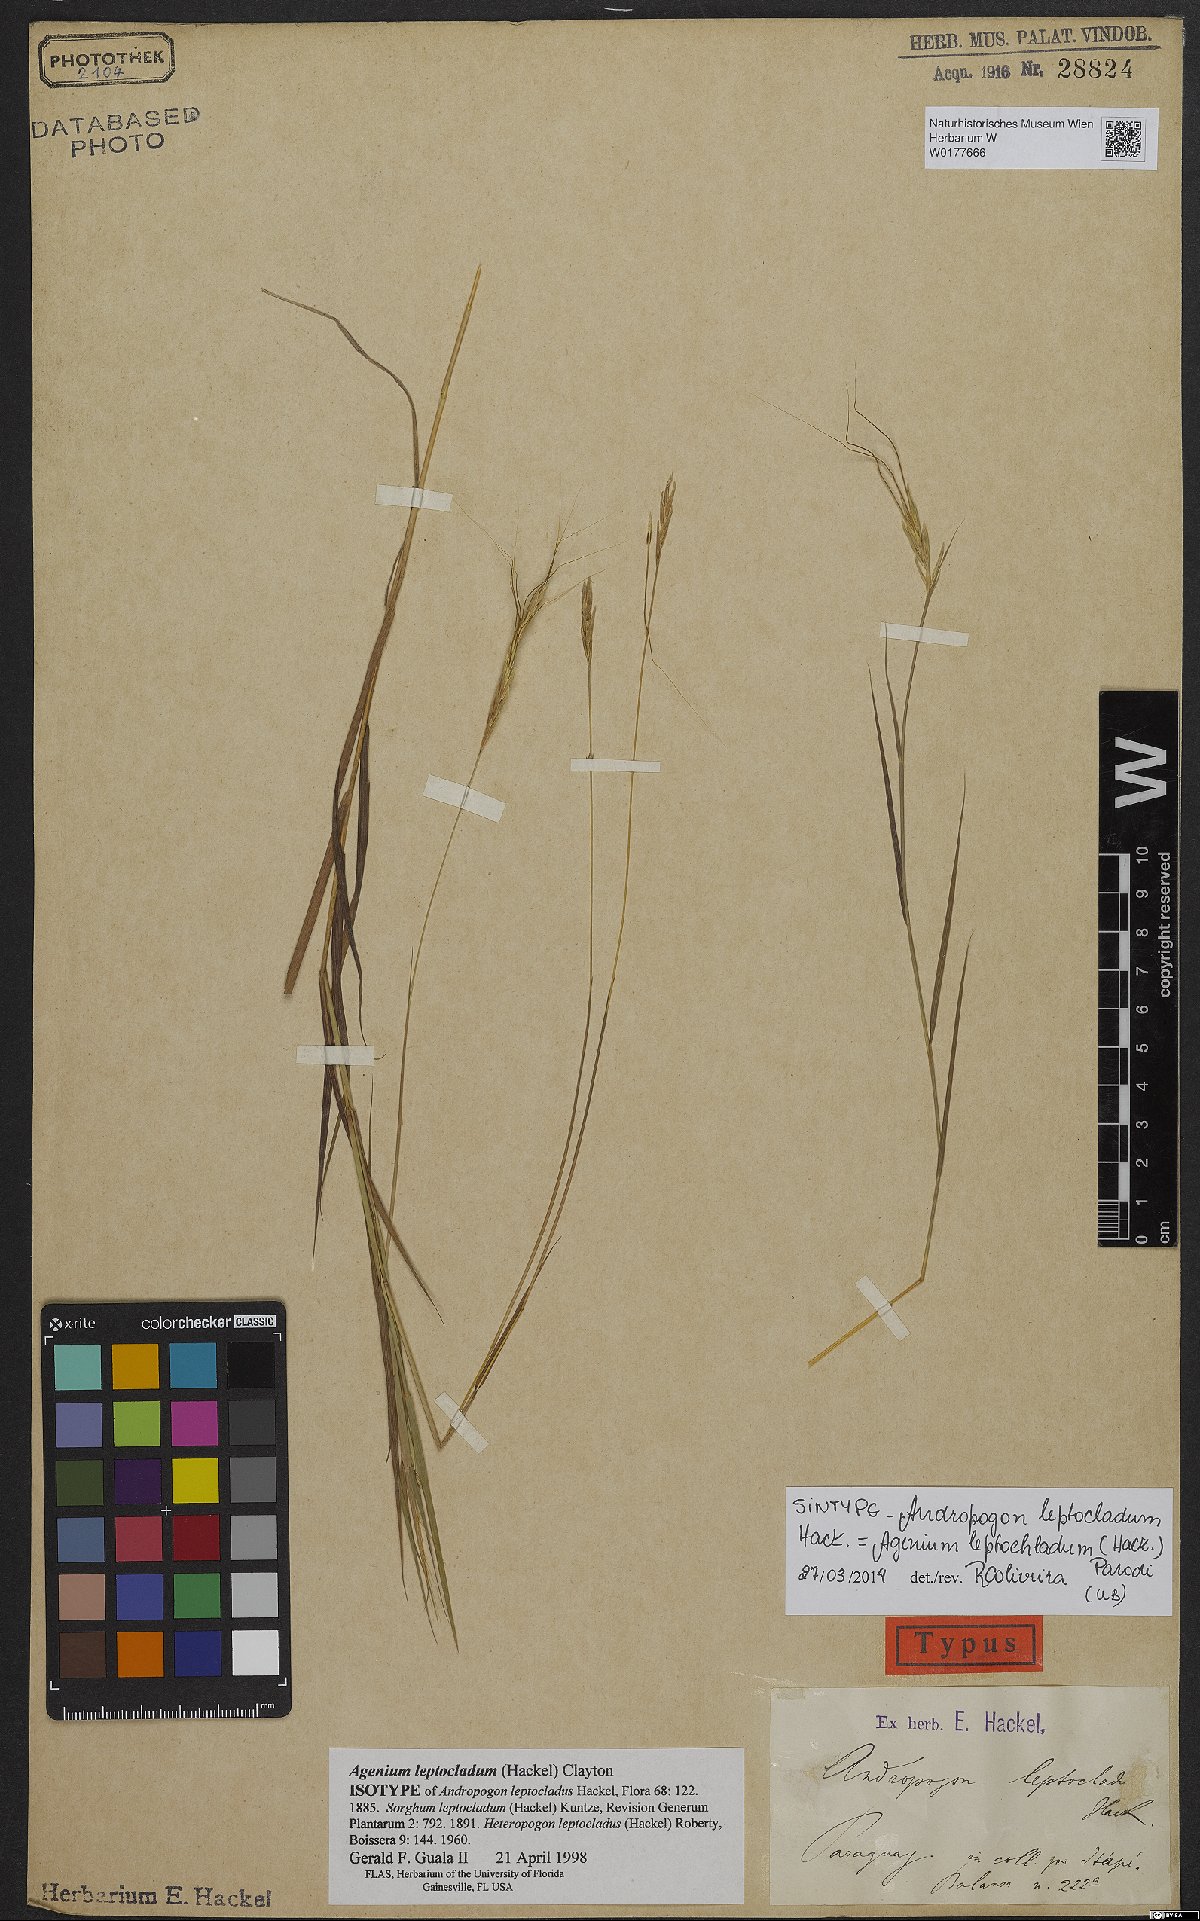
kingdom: Plantae
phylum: Tracheophyta
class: Liliopsida
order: Poales
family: Poaceae
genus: Agenium
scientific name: Agenium leptocladum
